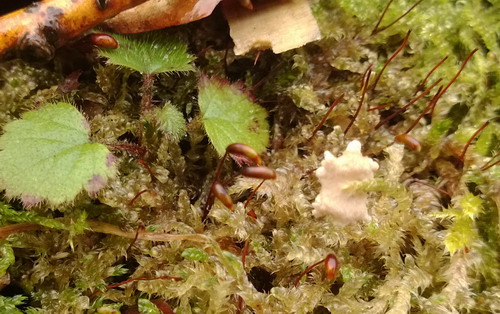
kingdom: Fungi
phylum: Basidiomycota
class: Agaricomycetes
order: Agaricales
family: Hygrophoraceae
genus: Arrhenia
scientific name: Arrhenia retiruga
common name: lille fontænehat
